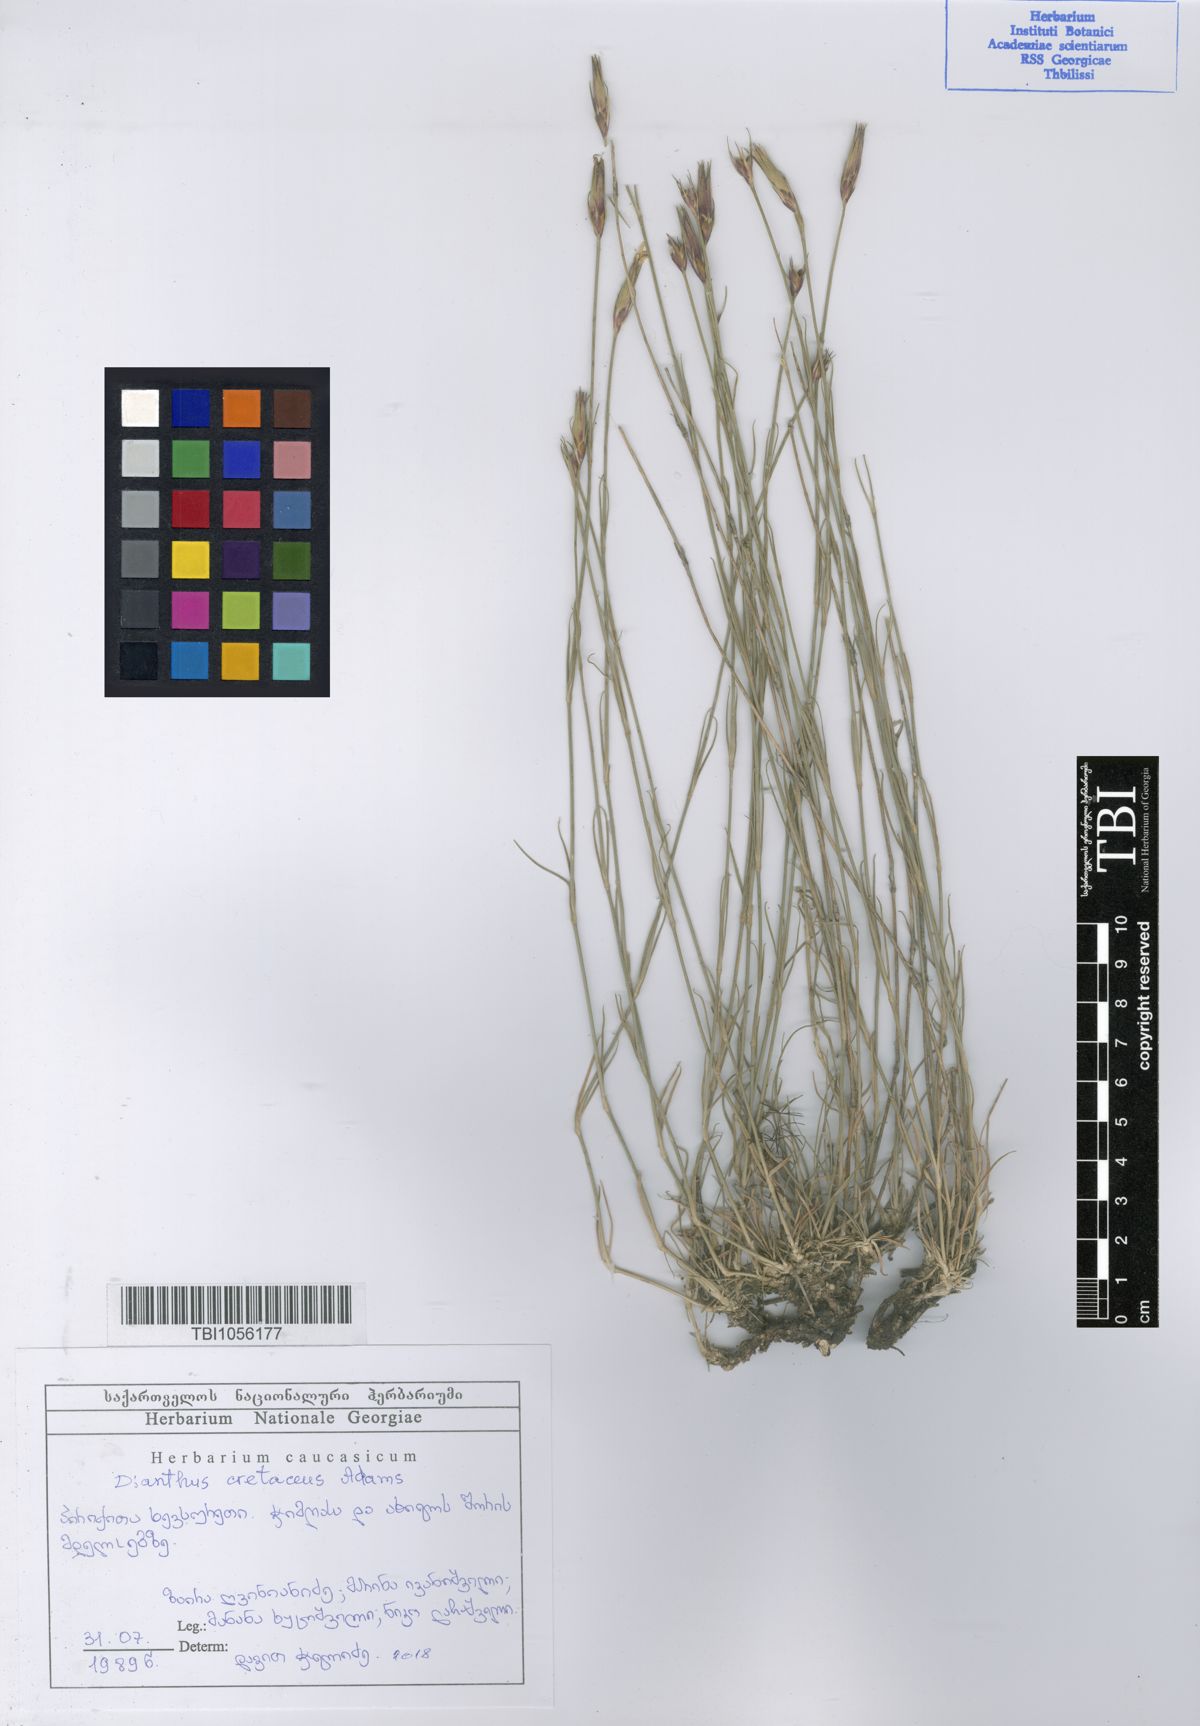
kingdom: Plantae
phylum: Tracheophyta
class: Magnoliopsida
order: Caryophyllales
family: Caryophyllaceae
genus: Dianthus
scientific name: Dianthus cretaceus
